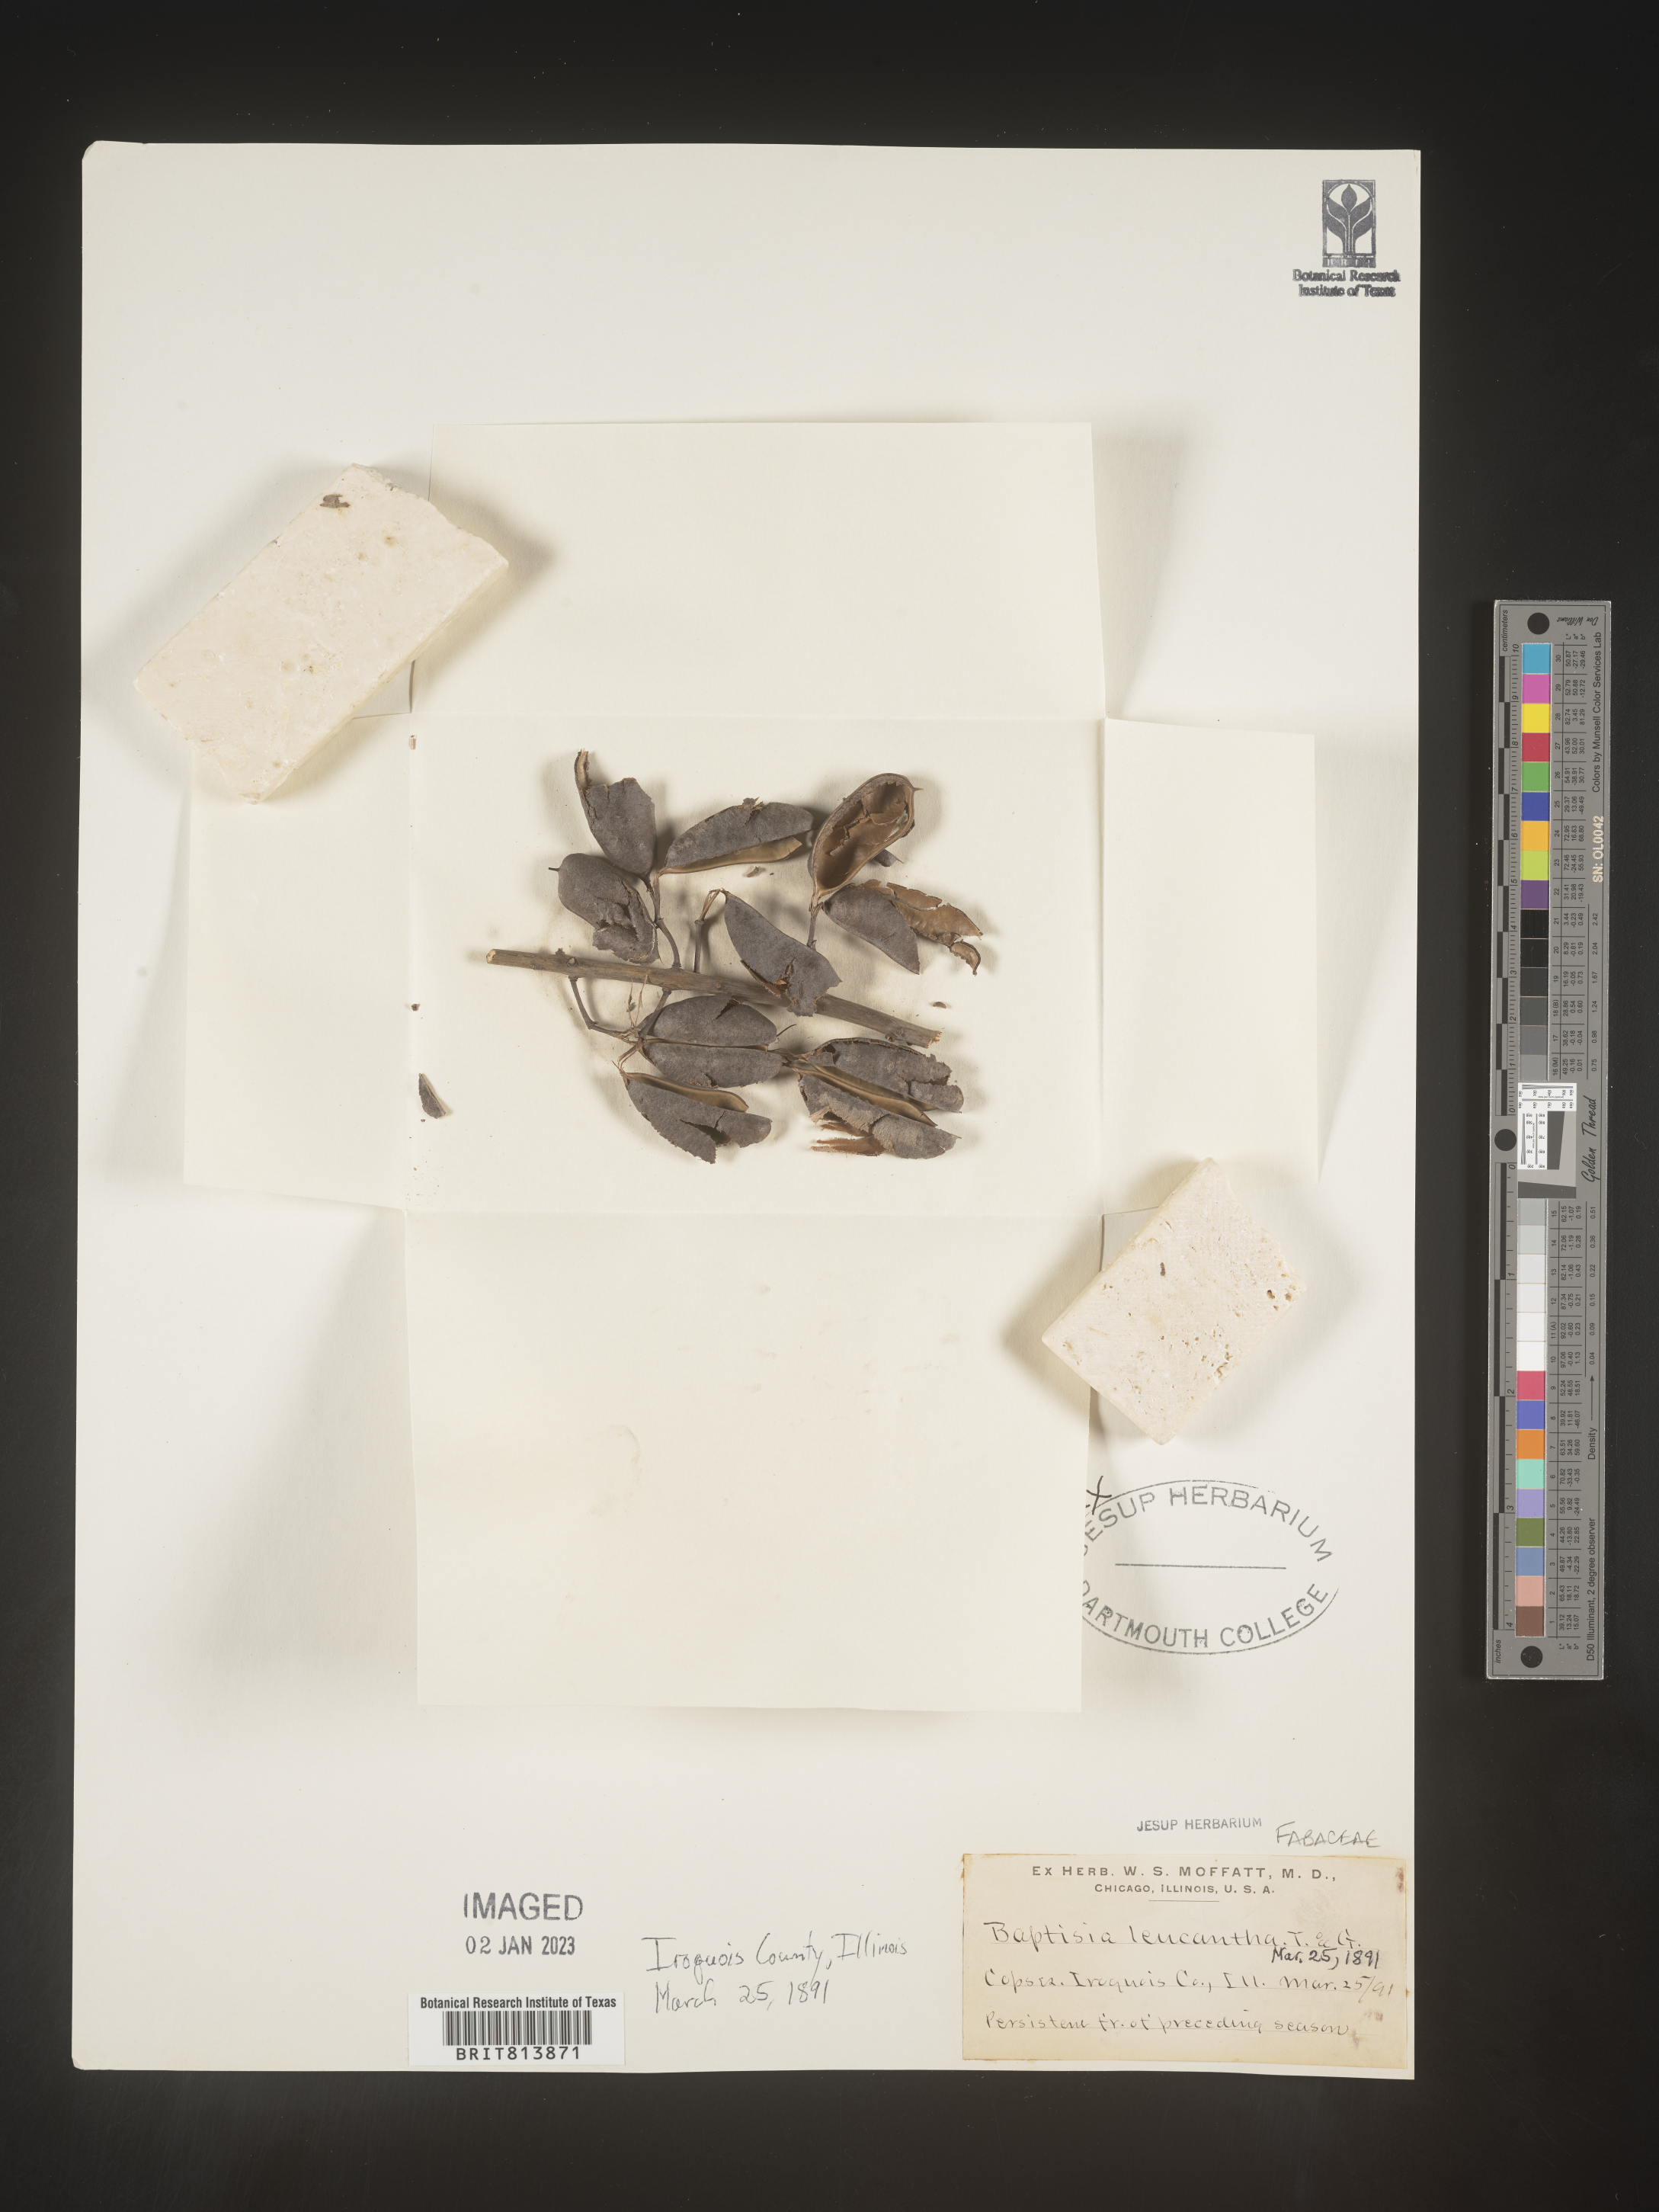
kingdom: Plantae
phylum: Tracheophyta
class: Magnoliopsida
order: Fabales
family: Fabaceae
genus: Baptisia
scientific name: Baptisia alba
